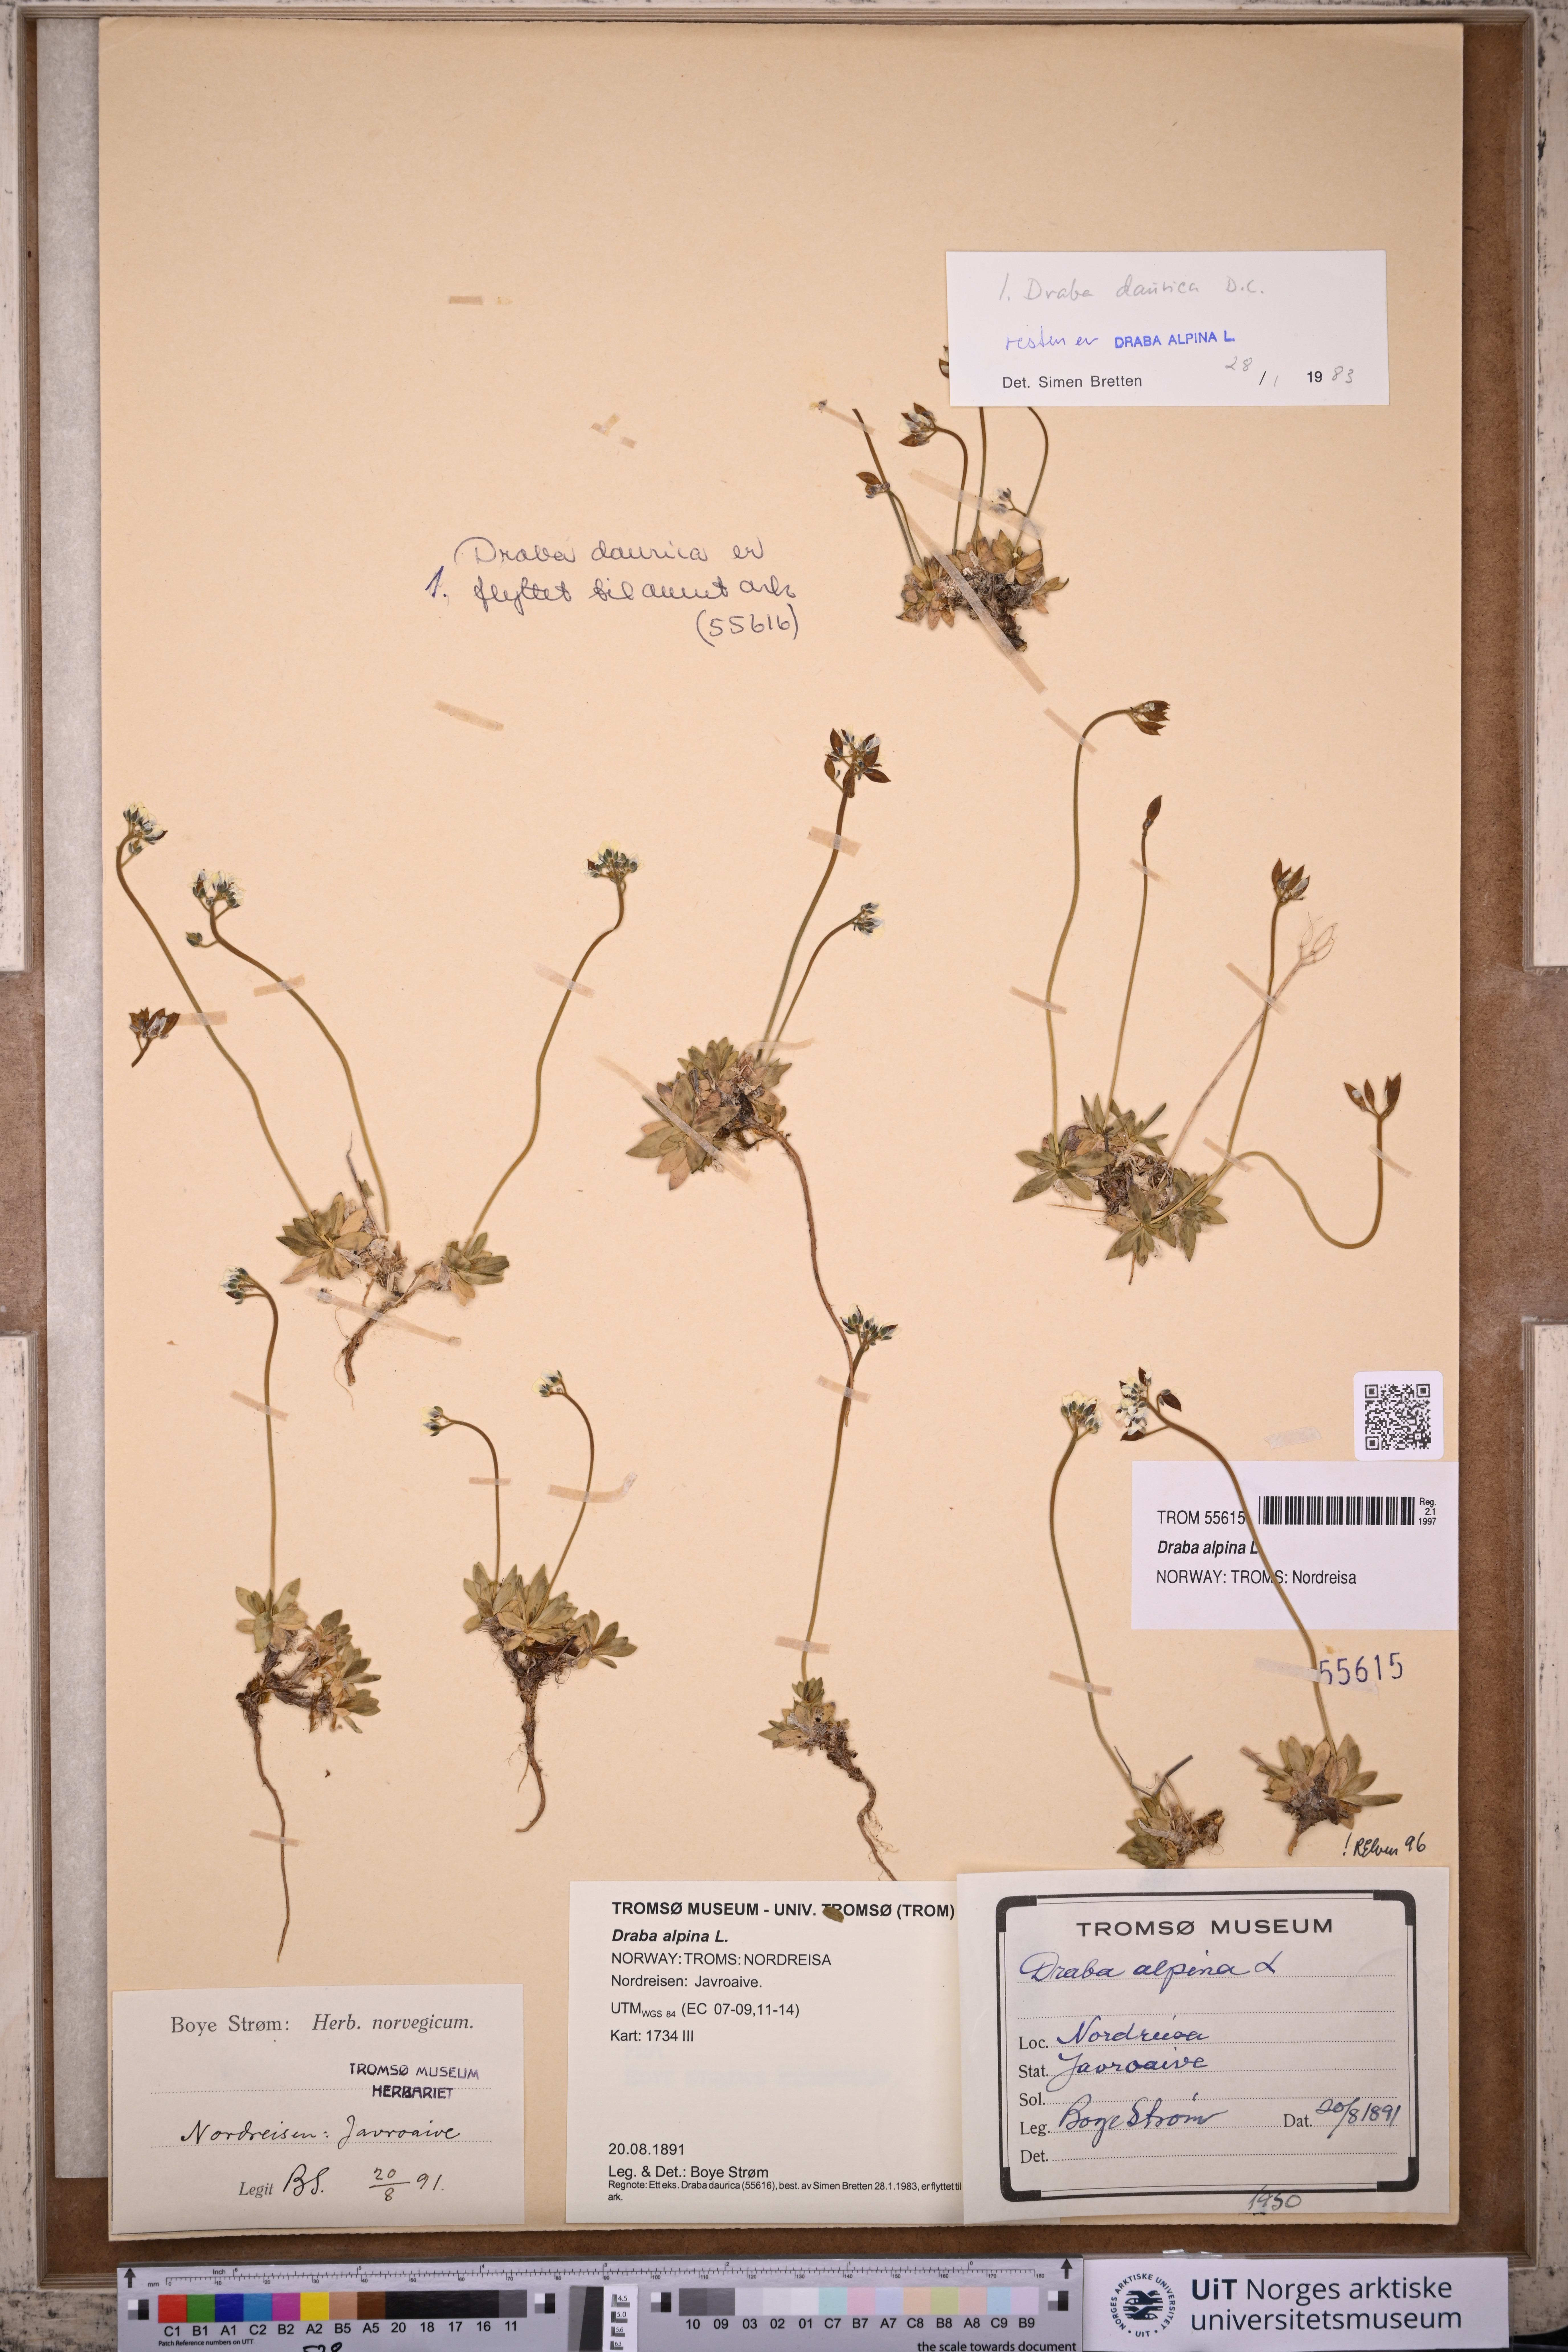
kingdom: Plantae
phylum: Tracheophyta
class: Magnoliopsida
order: Brassicales
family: Brassicaceae
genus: Draba
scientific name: Draba alpina
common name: Alpine draba
